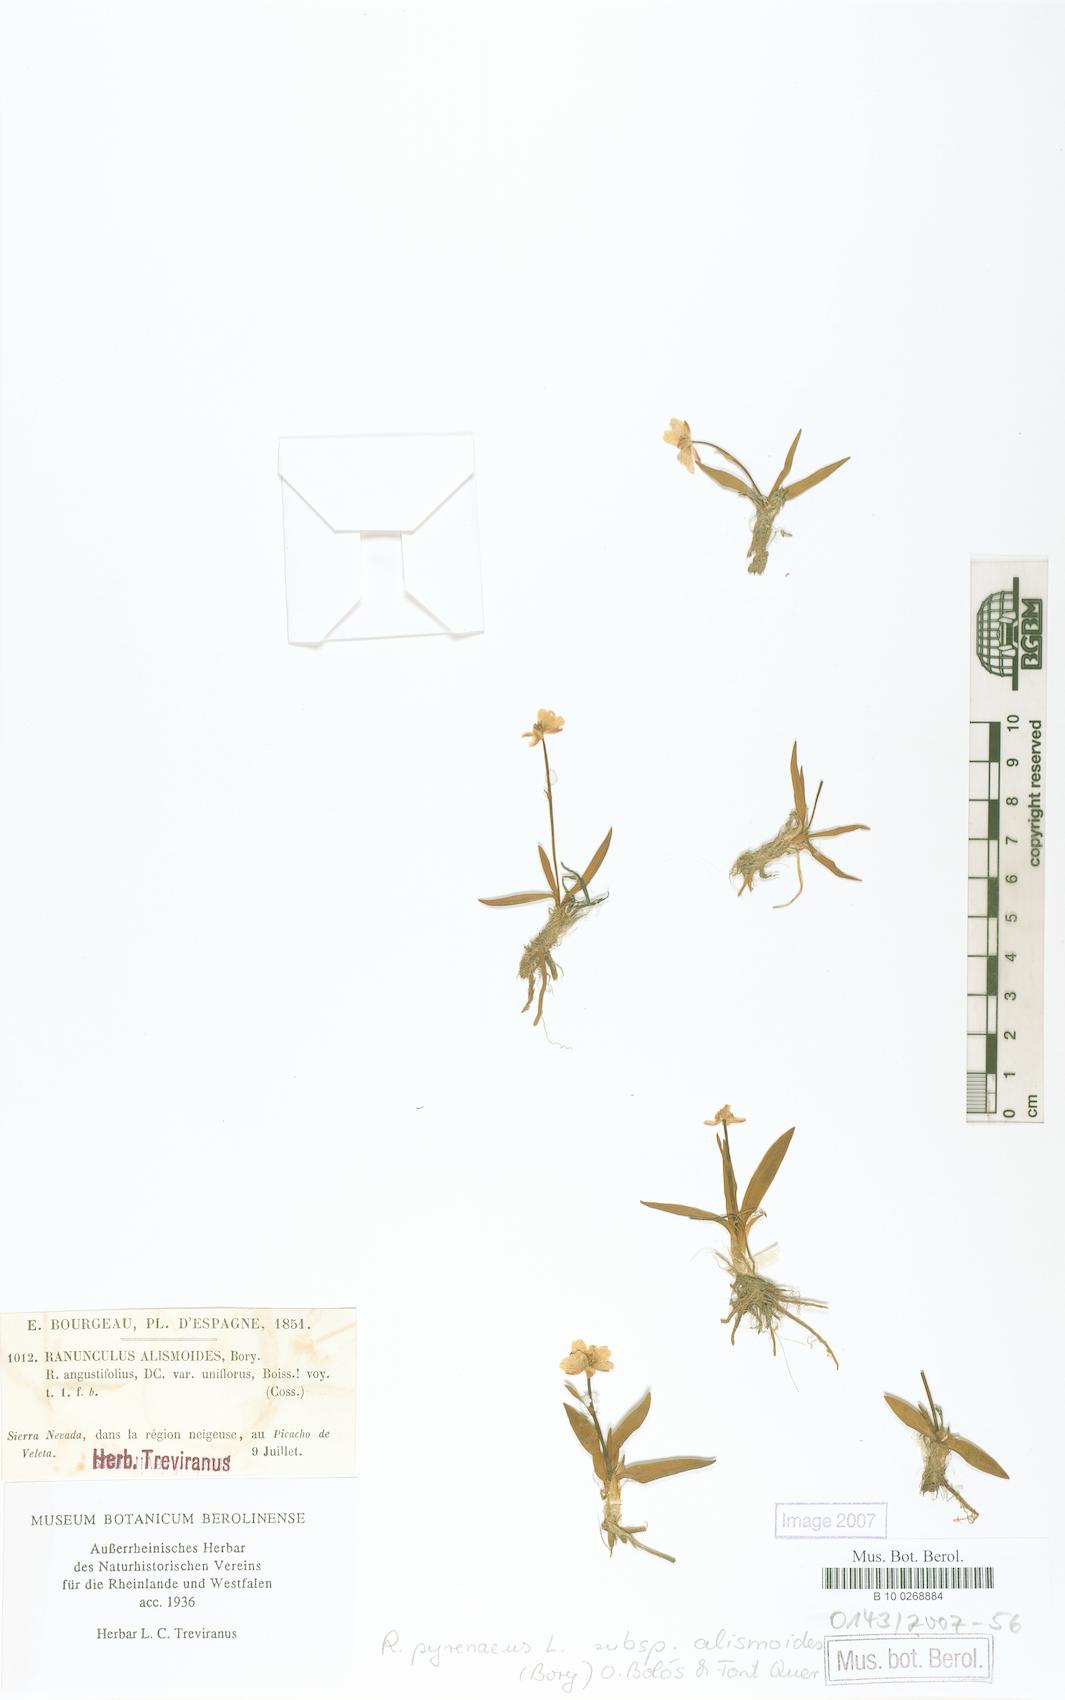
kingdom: Plantae
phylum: Tracheophyta
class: Magnoliopsida
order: Ranunculales
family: Ranunculaceae
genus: Ranunculus
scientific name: Ranunculus angustifolius
